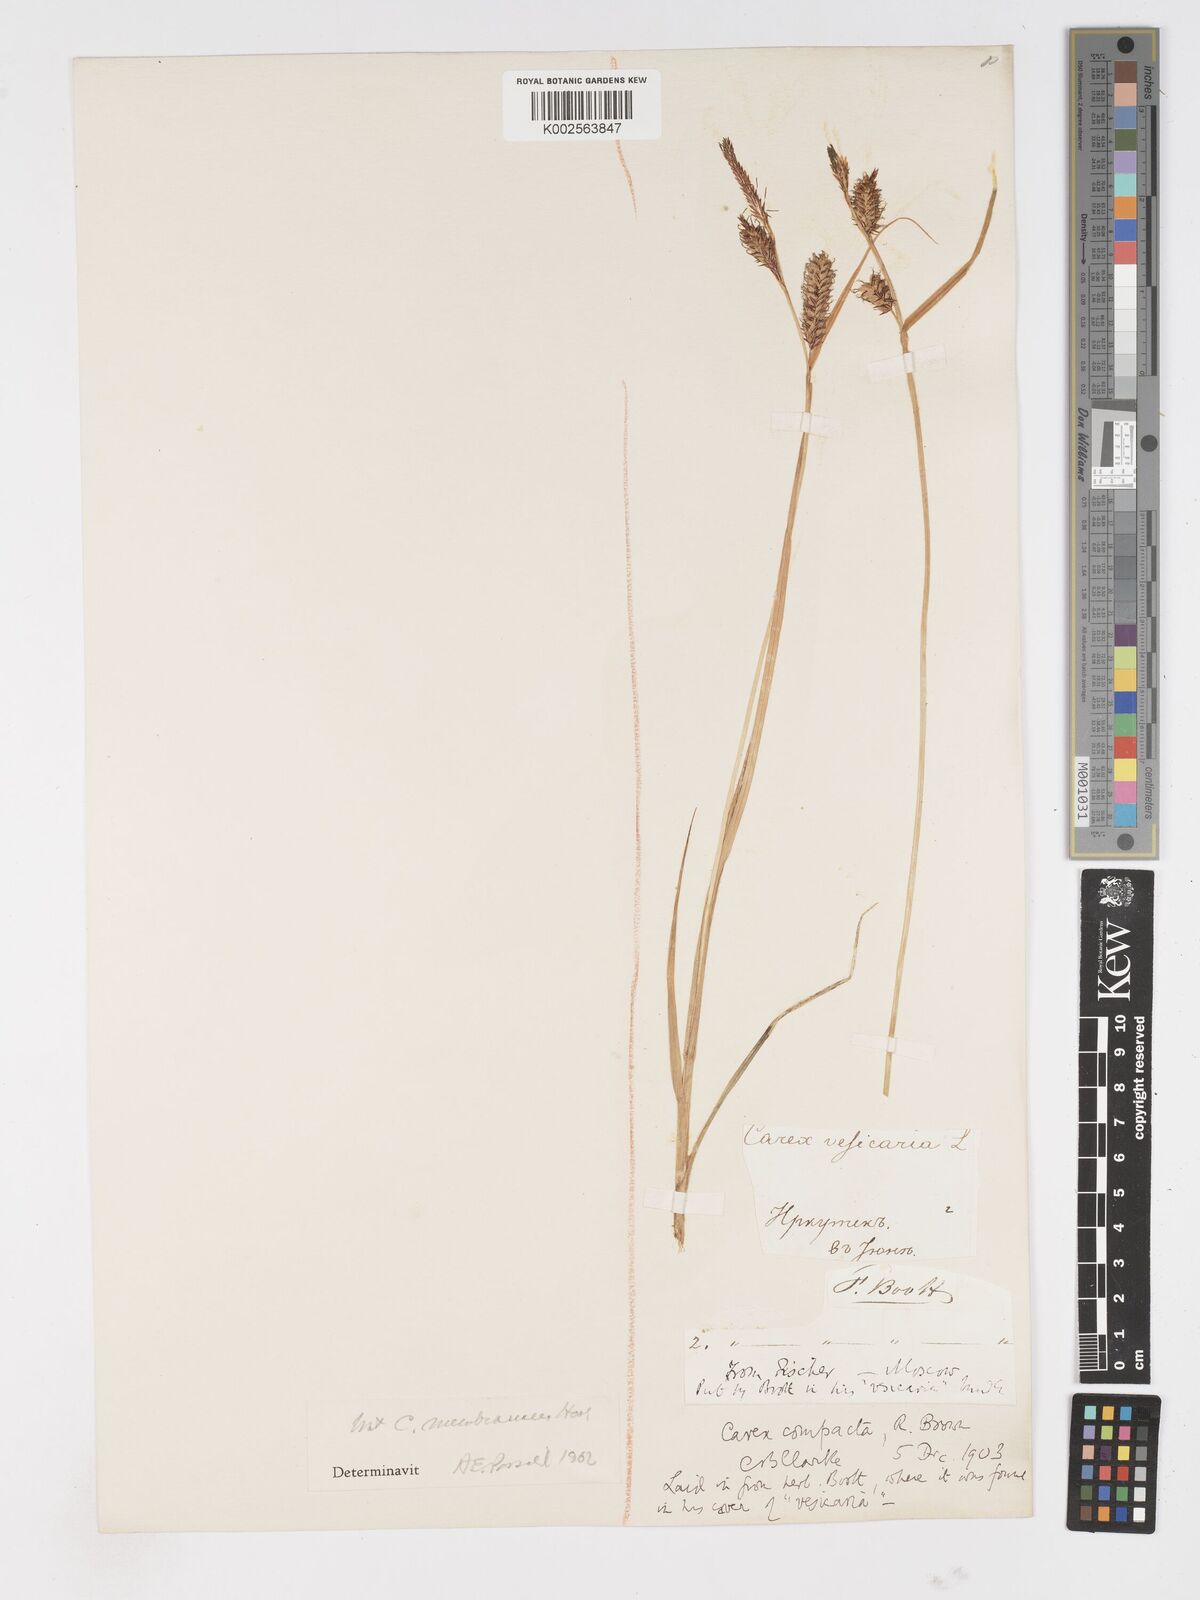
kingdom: Plantae
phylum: Tracheophyta
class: Liliopsida
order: Poales
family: Cyperaceae
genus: Carex
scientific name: Carex membranacea
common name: Fragile sedge
